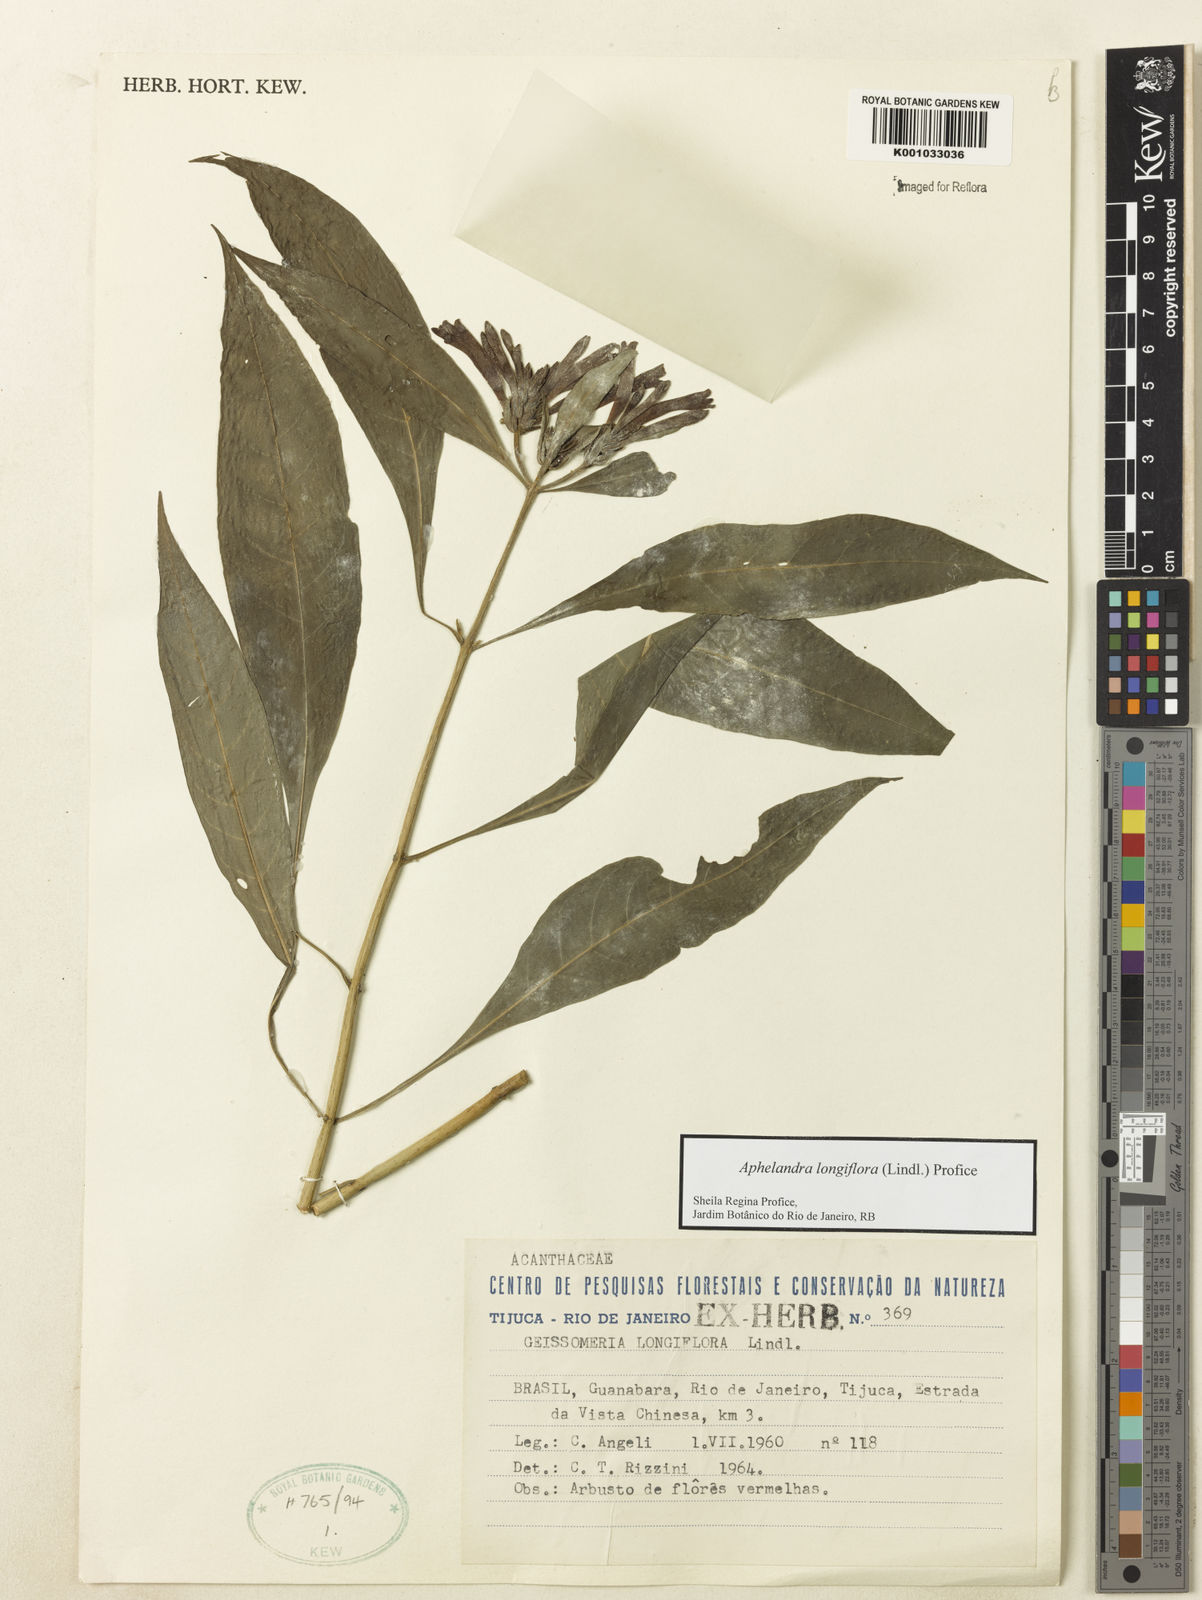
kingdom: Plantae
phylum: Tracheophyta
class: Magnoliopsida
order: Lamiales
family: Acanthaceae
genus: Aphelandra
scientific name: Aphelandra longiflora
